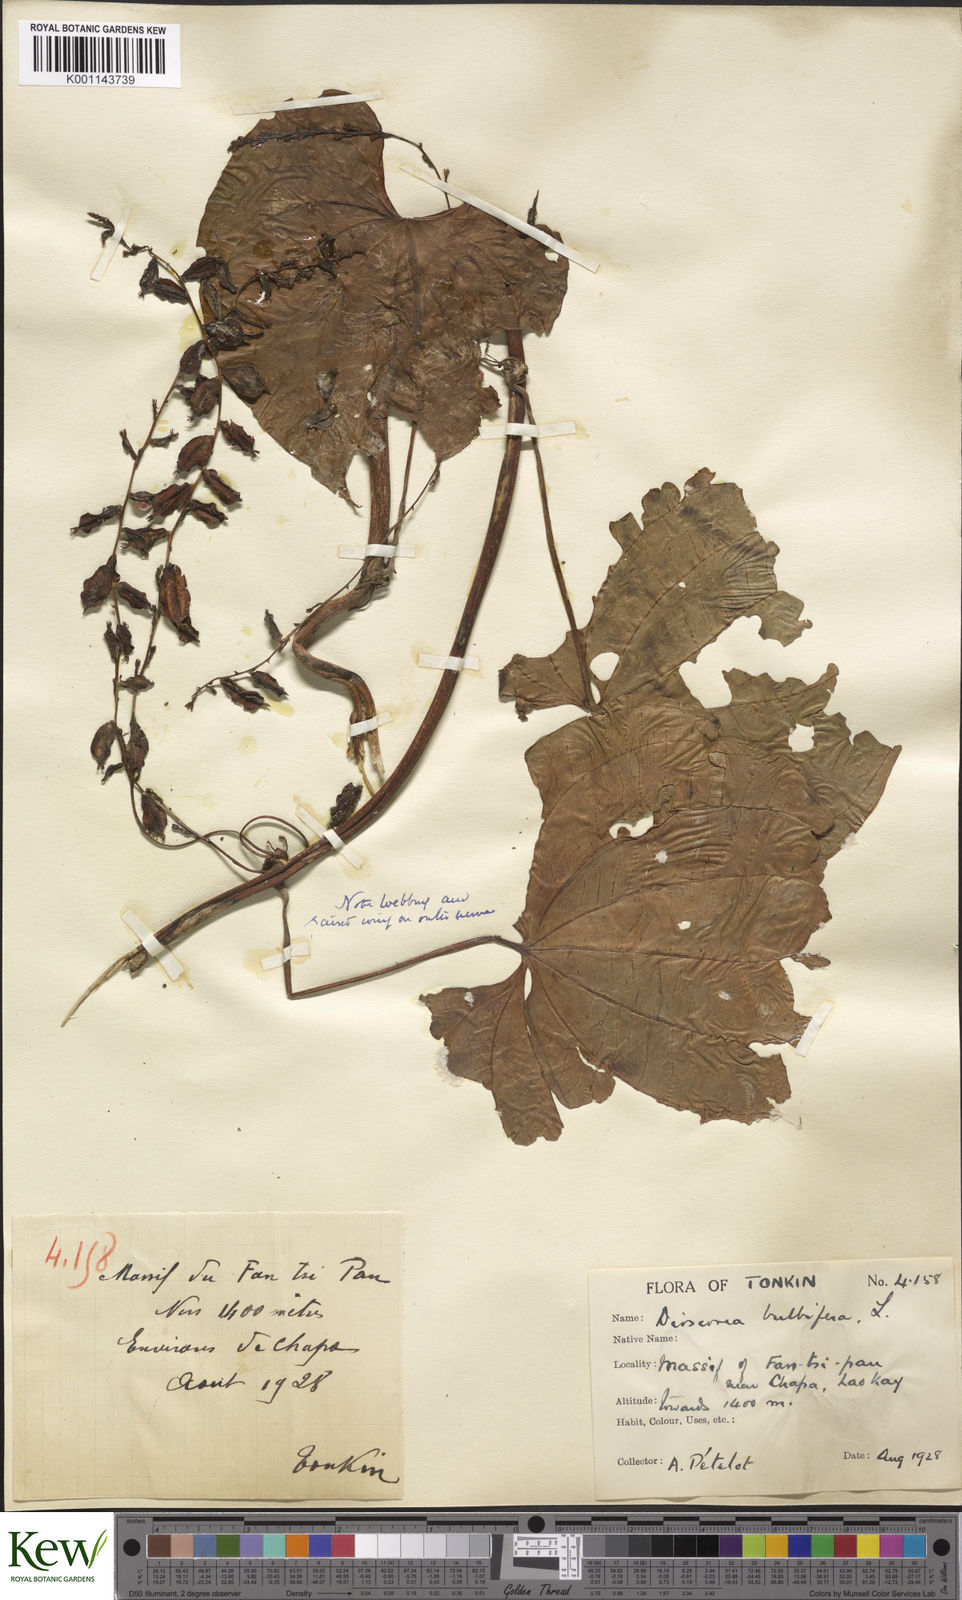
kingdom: Plantae
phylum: Tracheophyta
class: Liliopsida
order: Dioscoreales
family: Dioscoreaceae
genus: Dioscorea
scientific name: Dioscorea bulbifera
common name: Air yam
